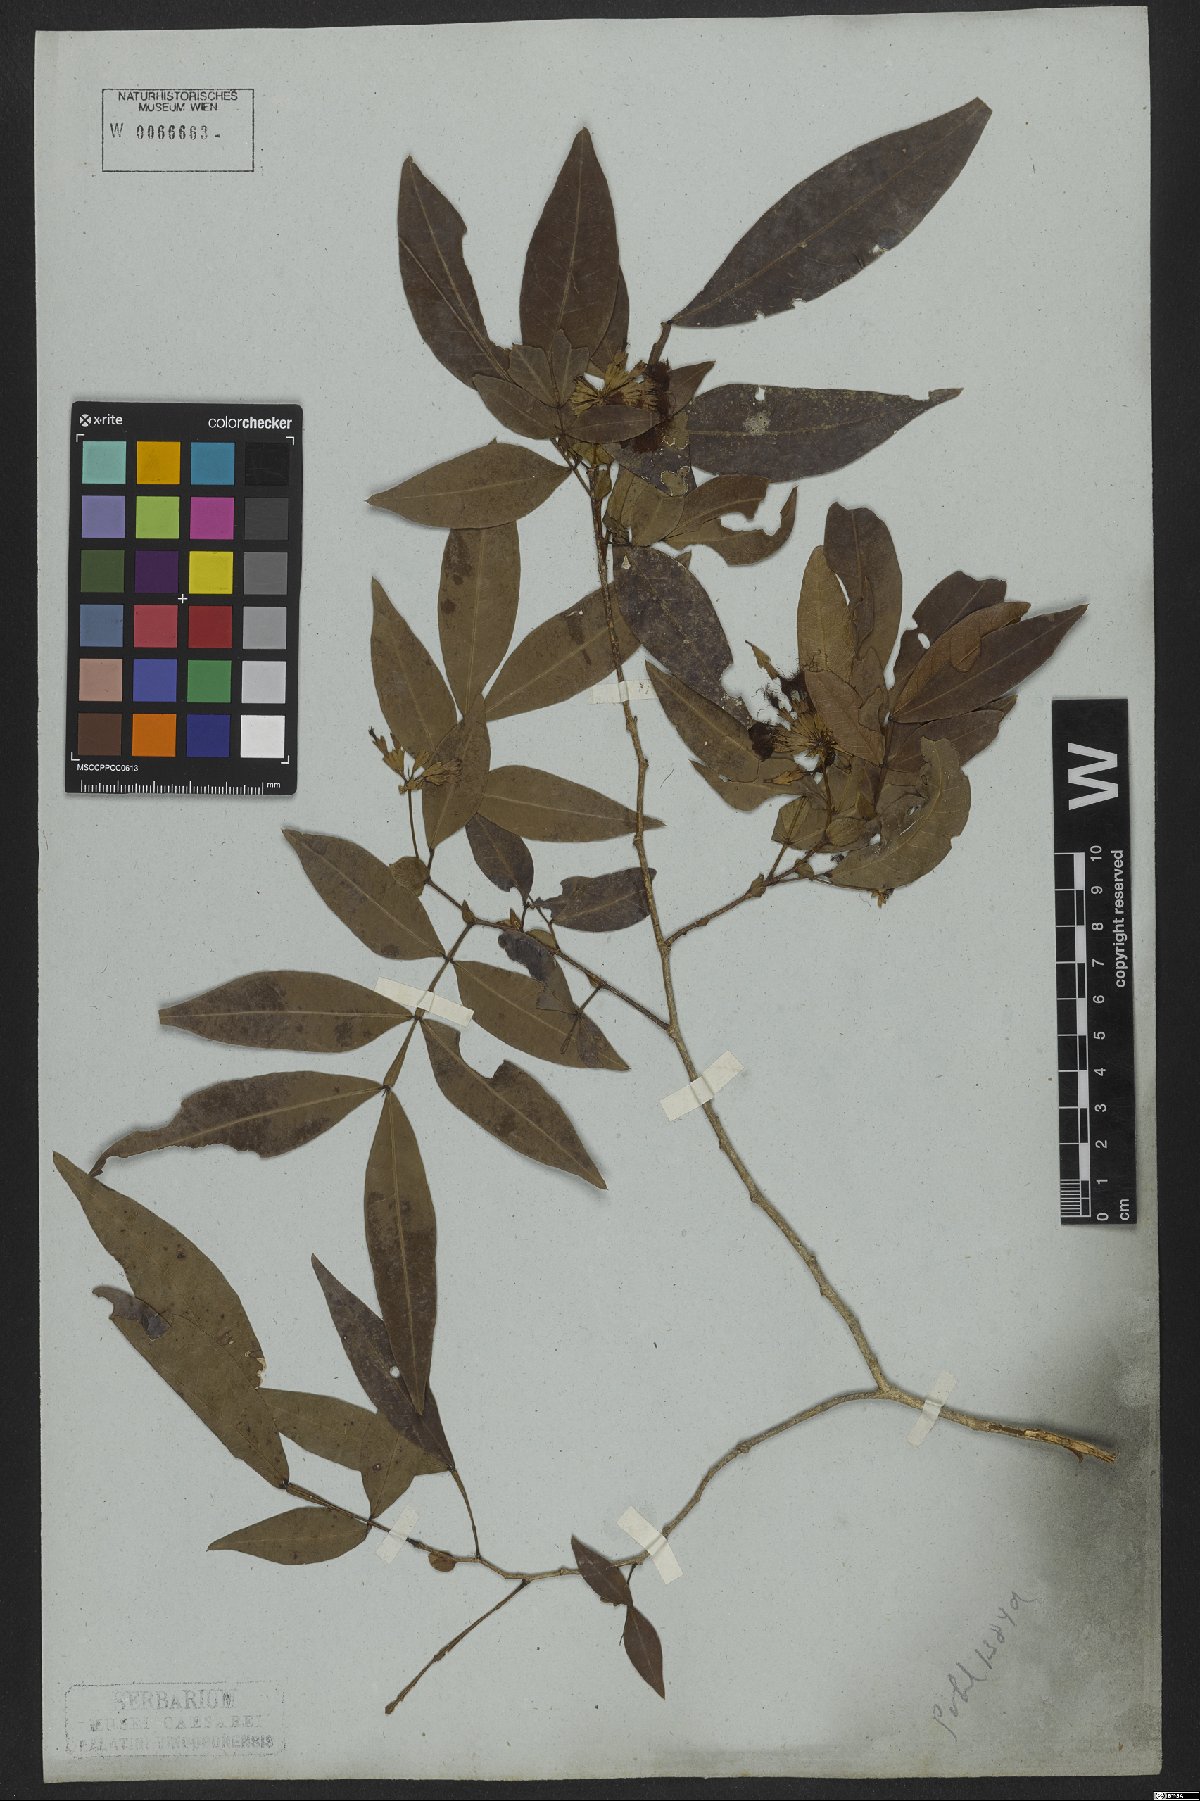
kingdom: Plantae
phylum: Tracheophyta
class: Magnoliopsida
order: Fabales
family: Fabaceae
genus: Inga
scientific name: Inga cordistipula
